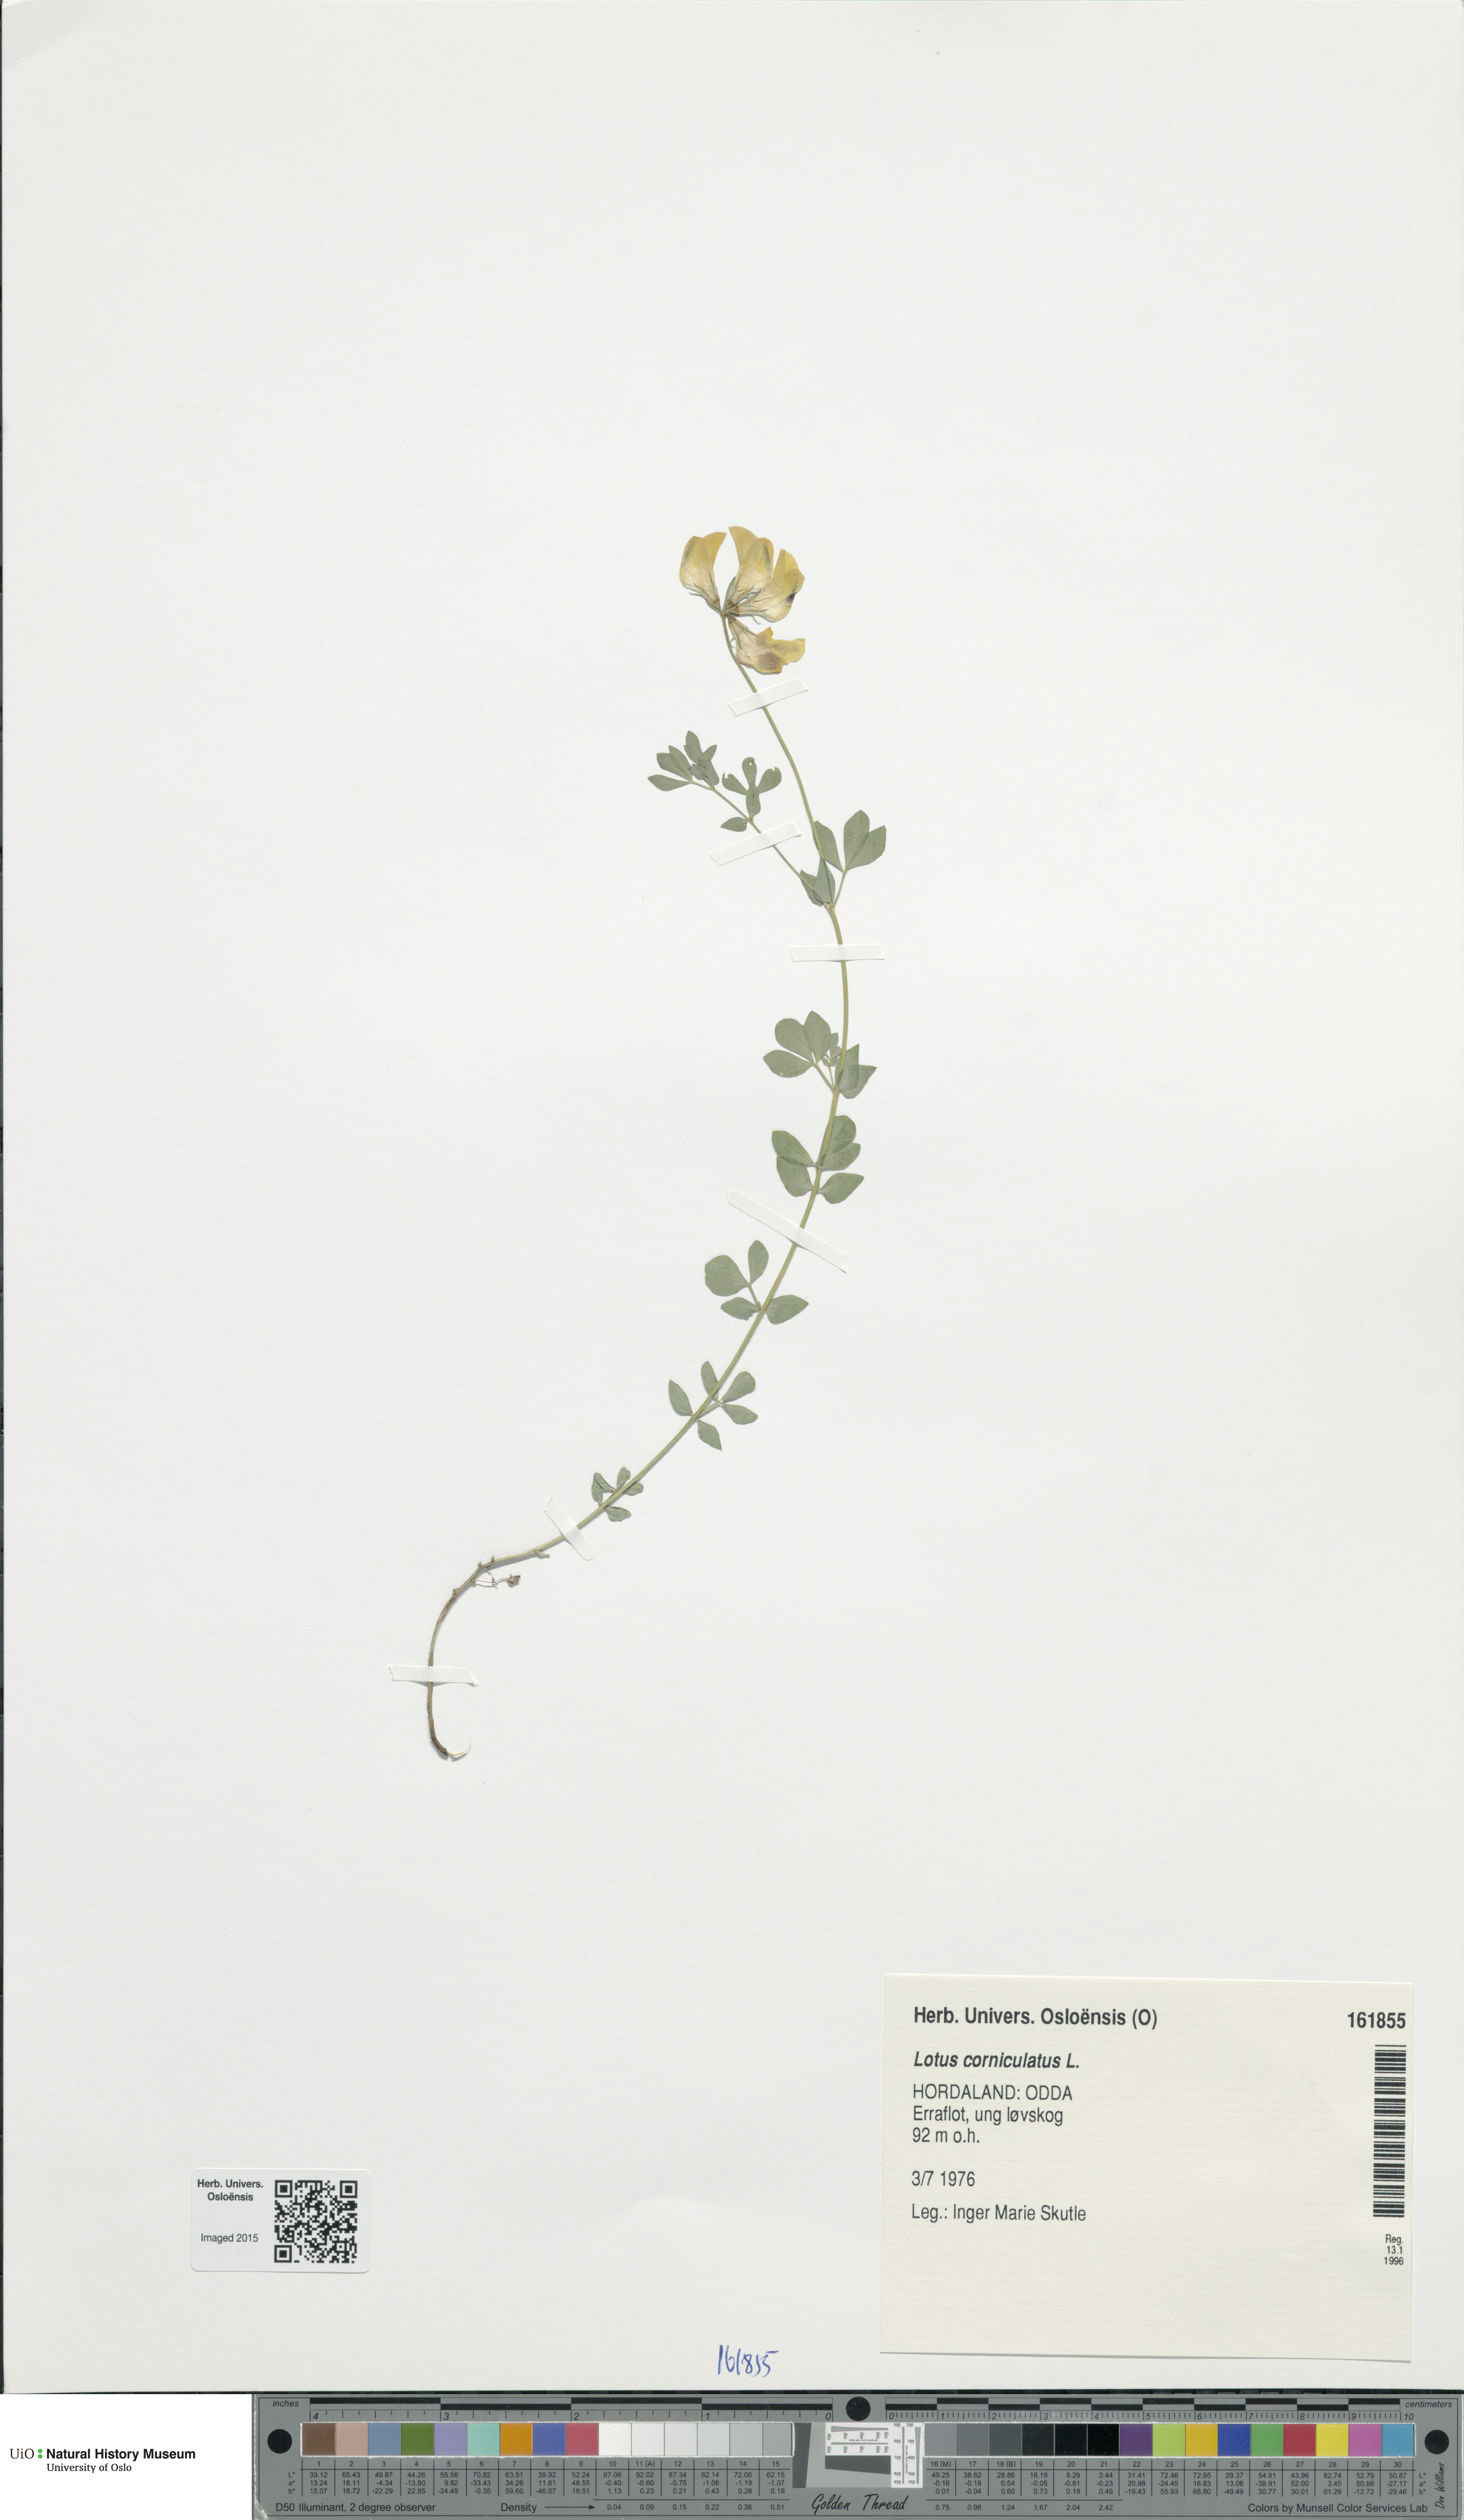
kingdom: Plantae
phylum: Tracheophyta
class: Magnoliopsida
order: Fabales
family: Fabaceae
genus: Lotus
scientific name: Lotus corniculatus
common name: Common bird's-foot-trefoil
